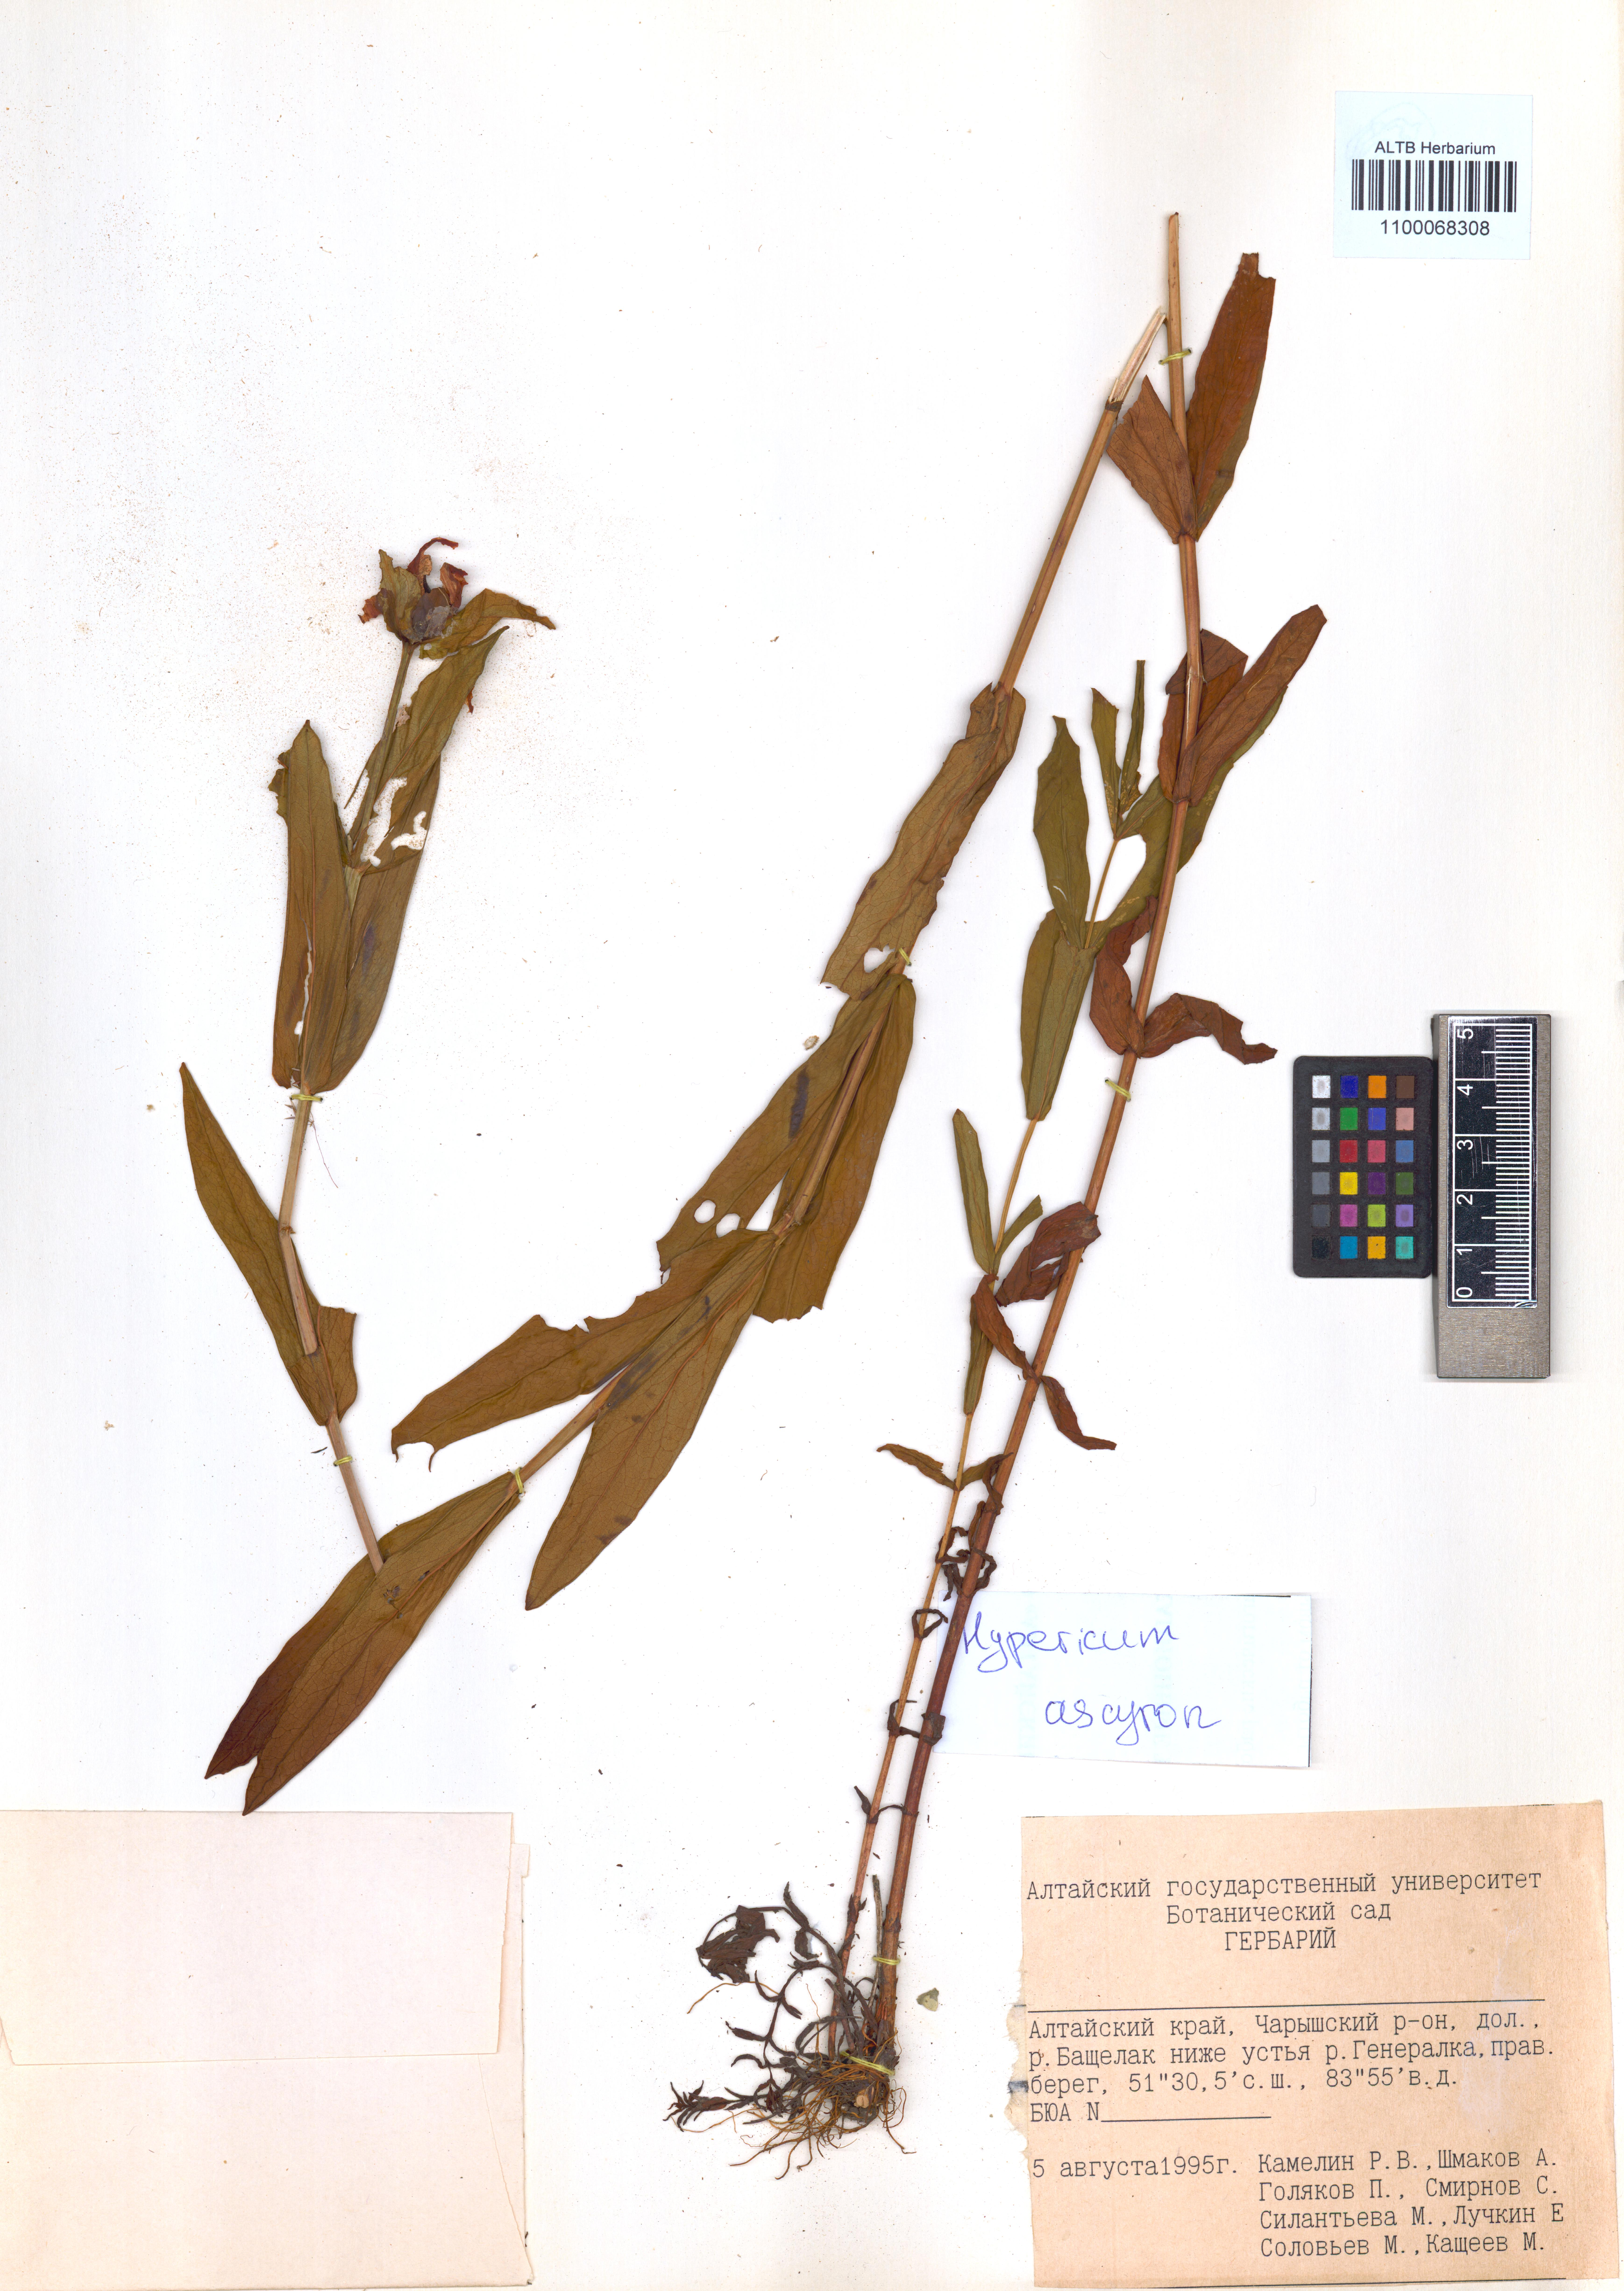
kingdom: Plantae
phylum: Tracheophyta
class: Magnoliopsida
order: Malpighiales
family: Hypericaceae
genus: Hypericum
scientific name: Hypericum ascyron
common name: Giant st. john's-wort
